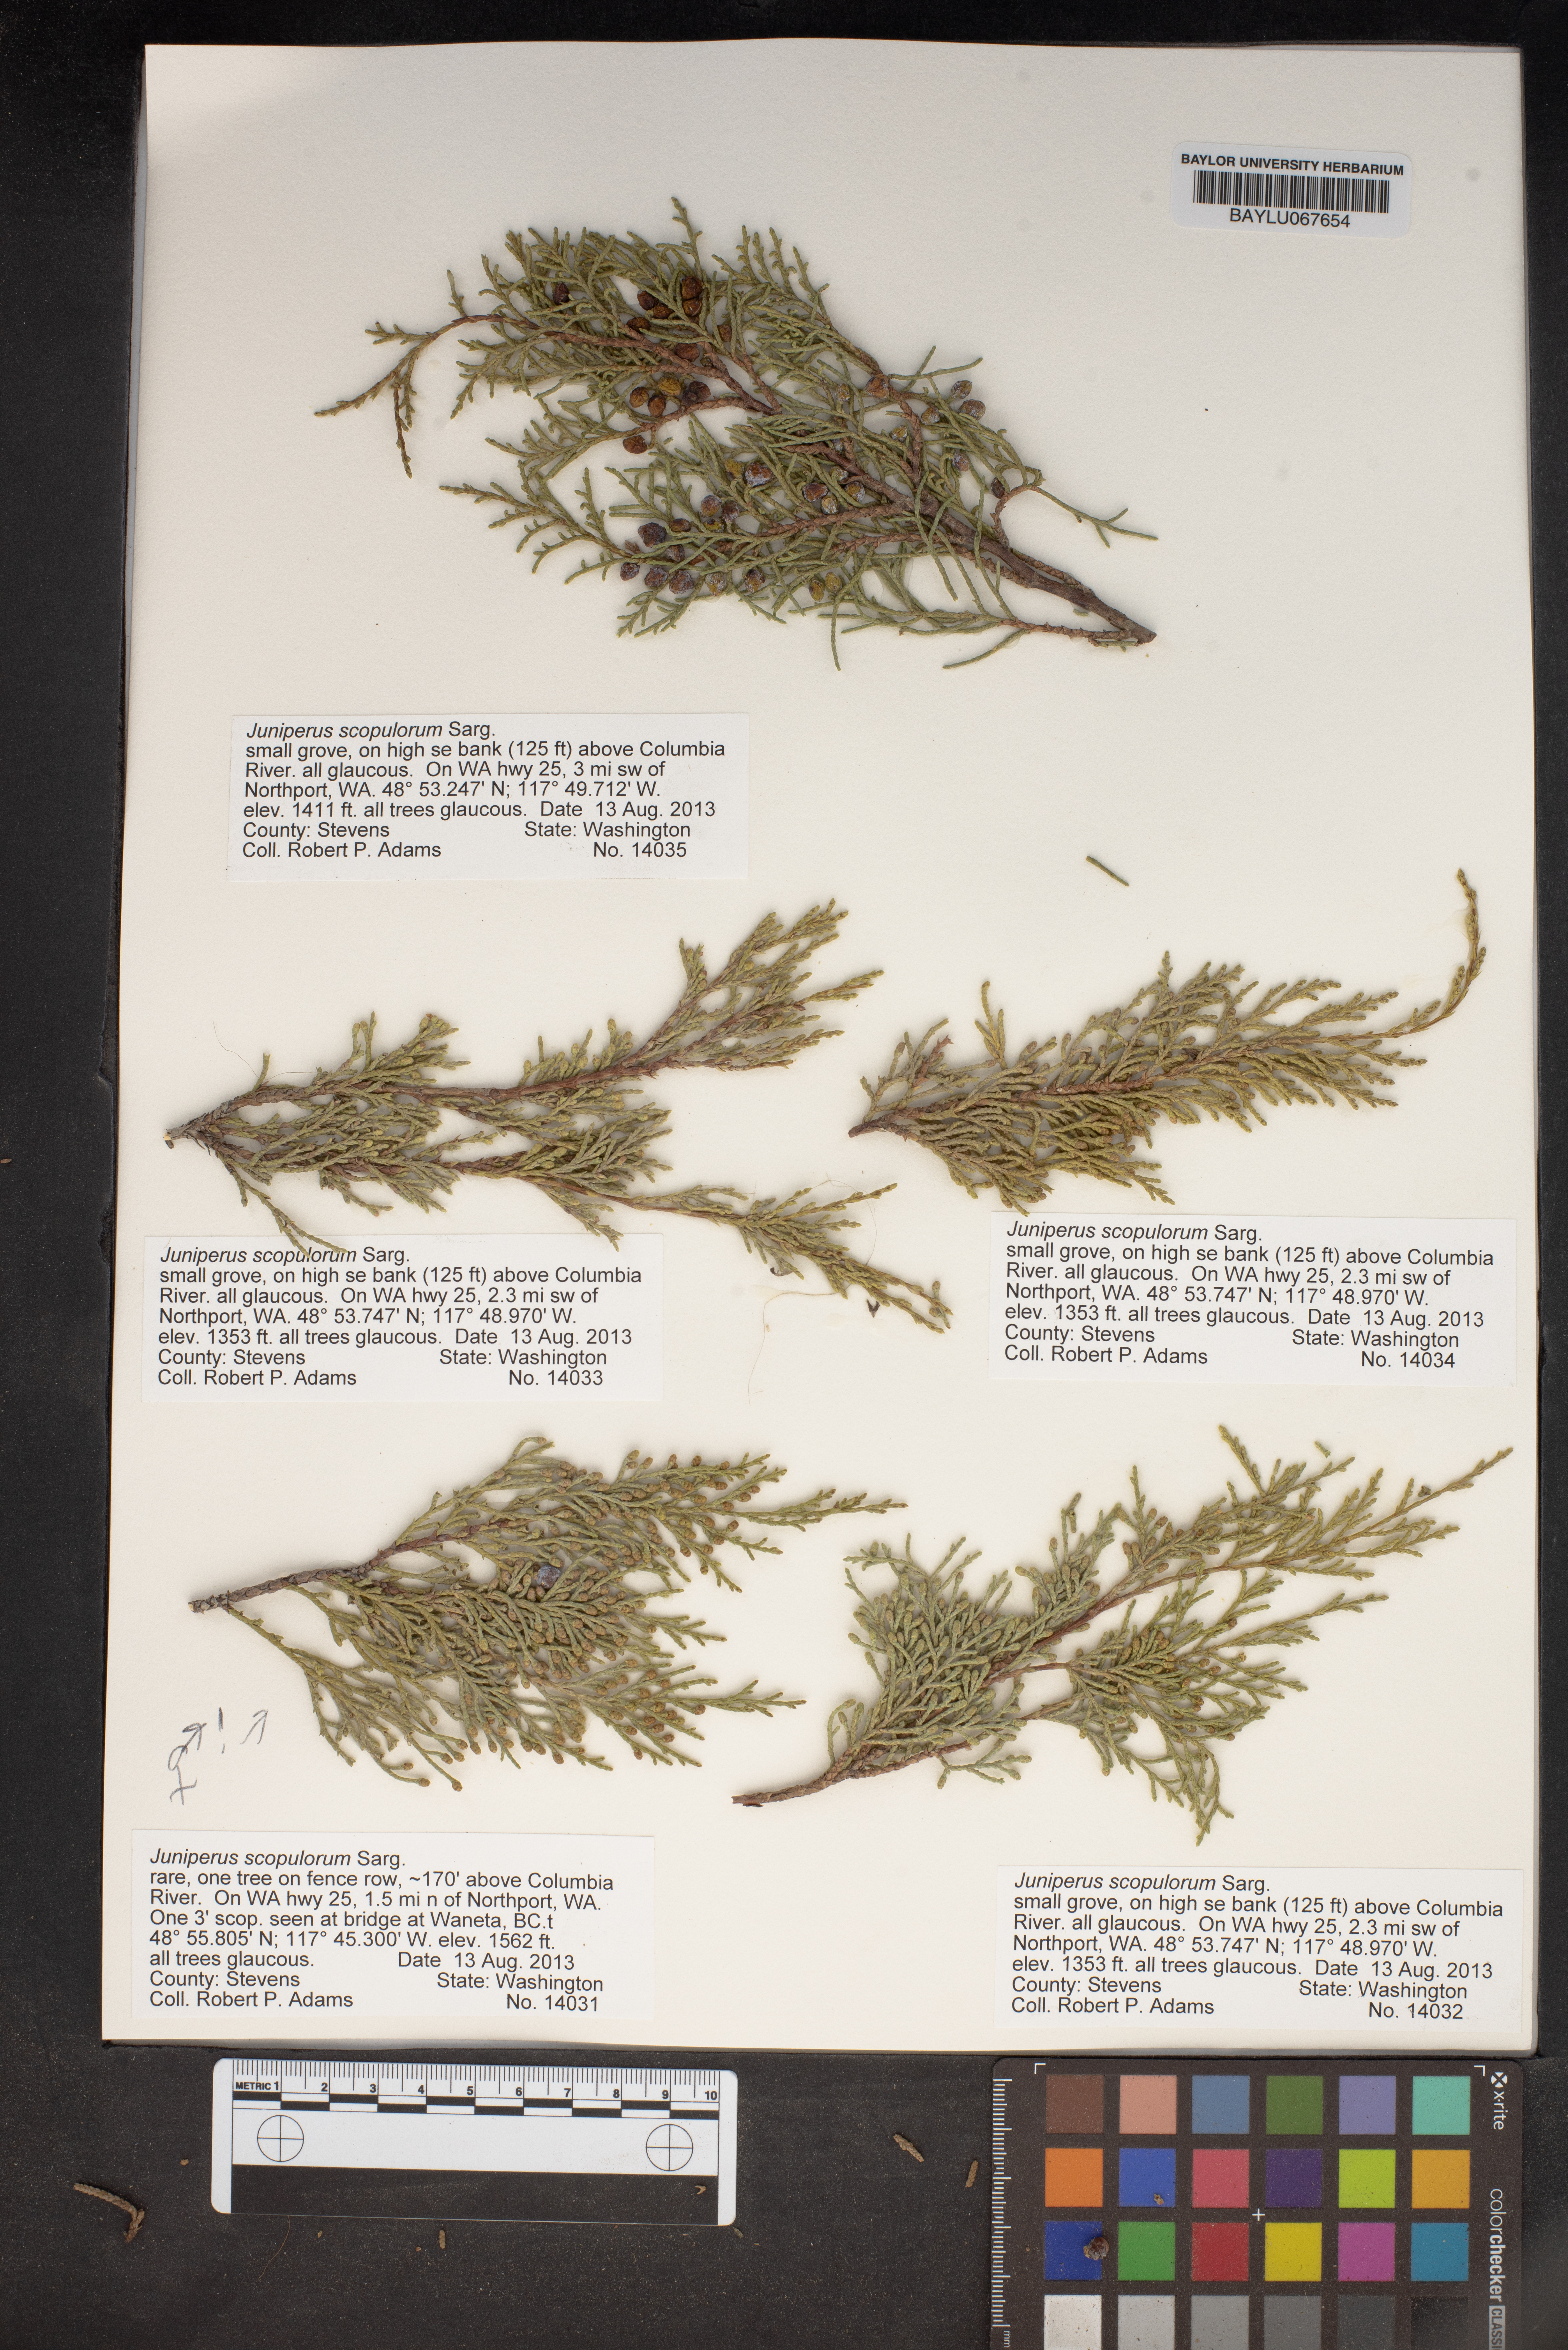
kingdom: Plantae
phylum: Tracheophyta
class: Pinopsida
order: Pinales
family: Cupressaceae
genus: Juniperus
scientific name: Juniperus scopulorum
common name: Rocky mountain juniper
